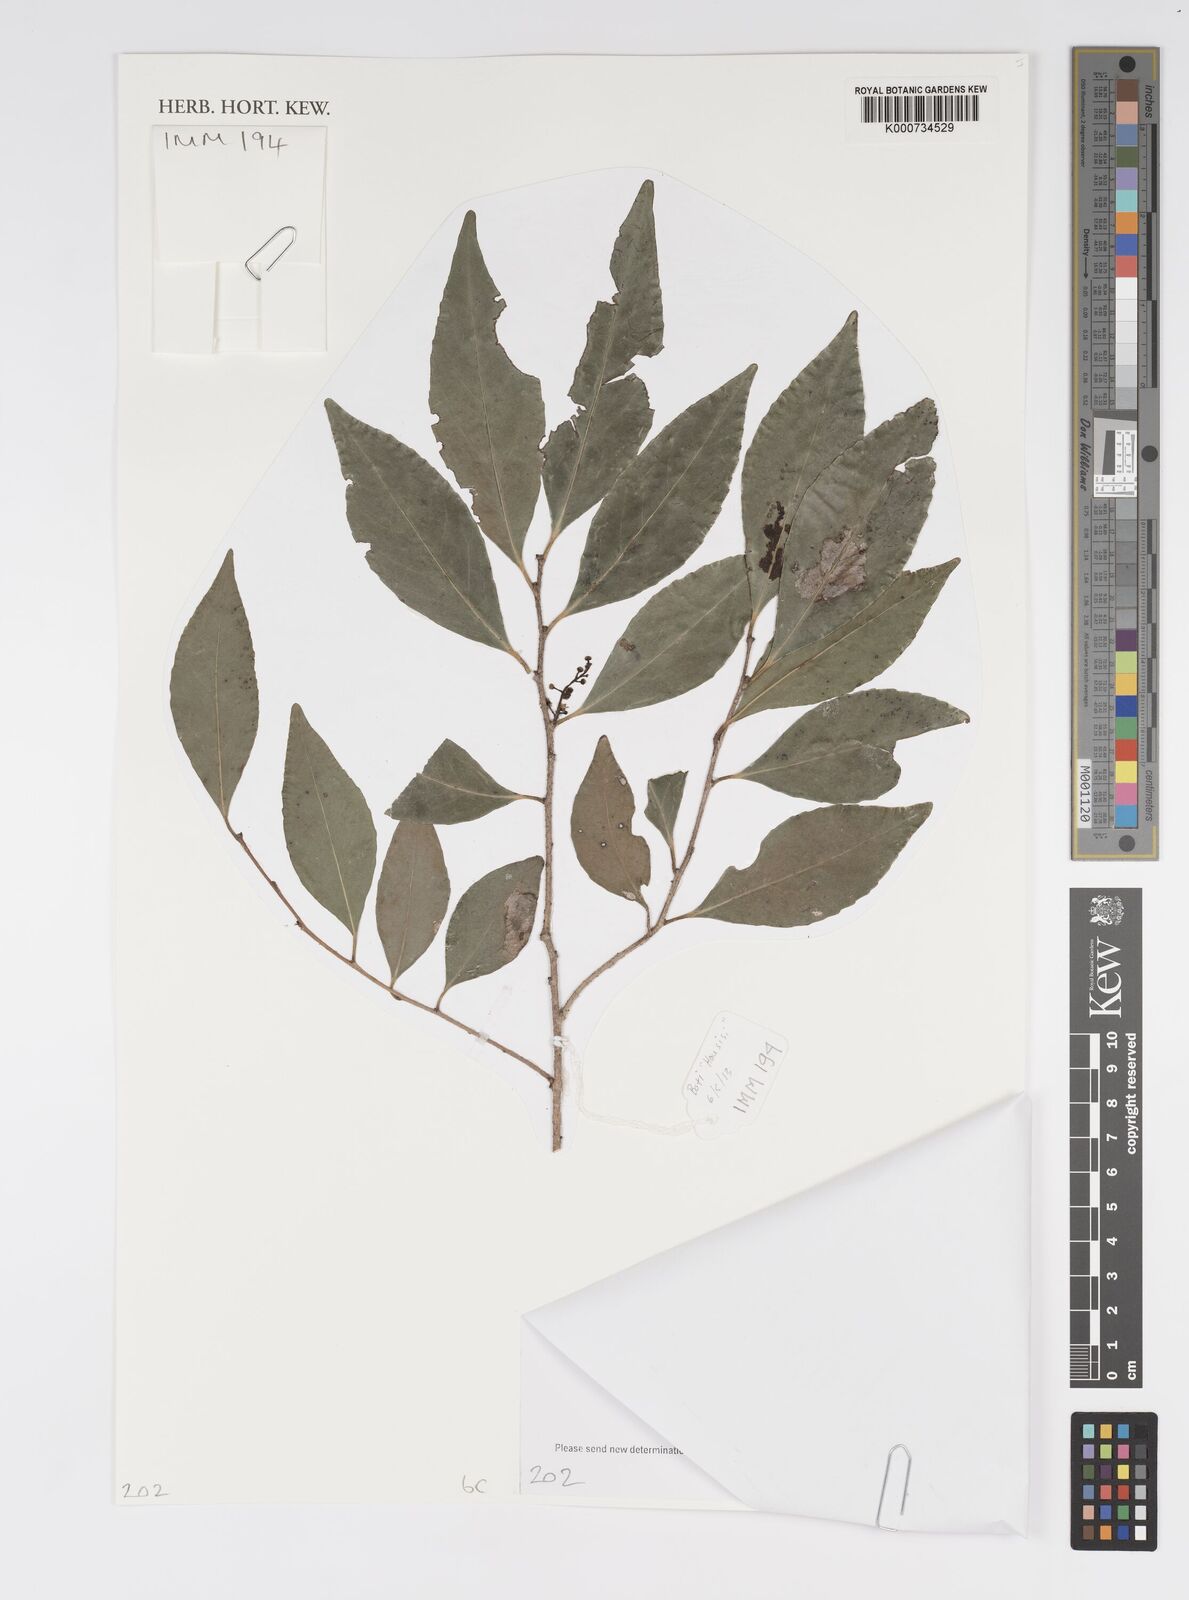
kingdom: Plantae
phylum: Tracheophyta
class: Magnoliopsida
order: Malpighiales
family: Salicaceae
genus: Xylosma
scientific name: Xylosma
